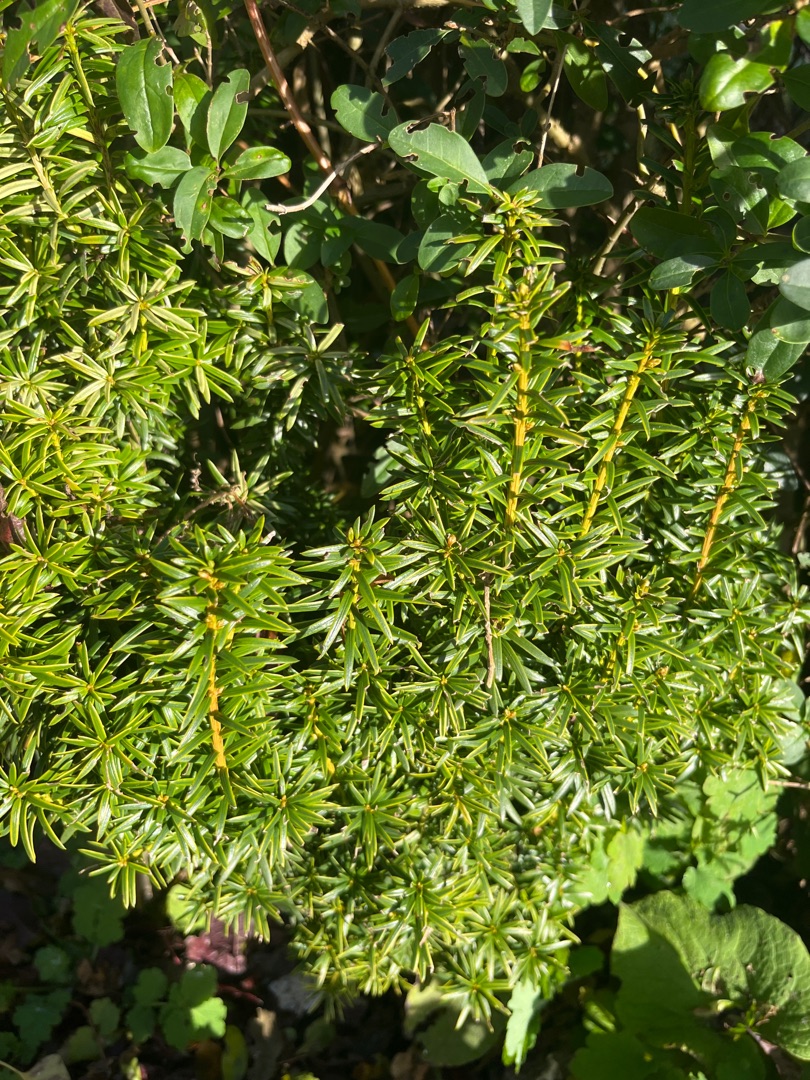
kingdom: Plantae
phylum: Tracheophyta
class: Pinopsida
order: Pinales
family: Taxaceae
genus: Taxus
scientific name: Taxus baccata
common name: Almindelig taks
